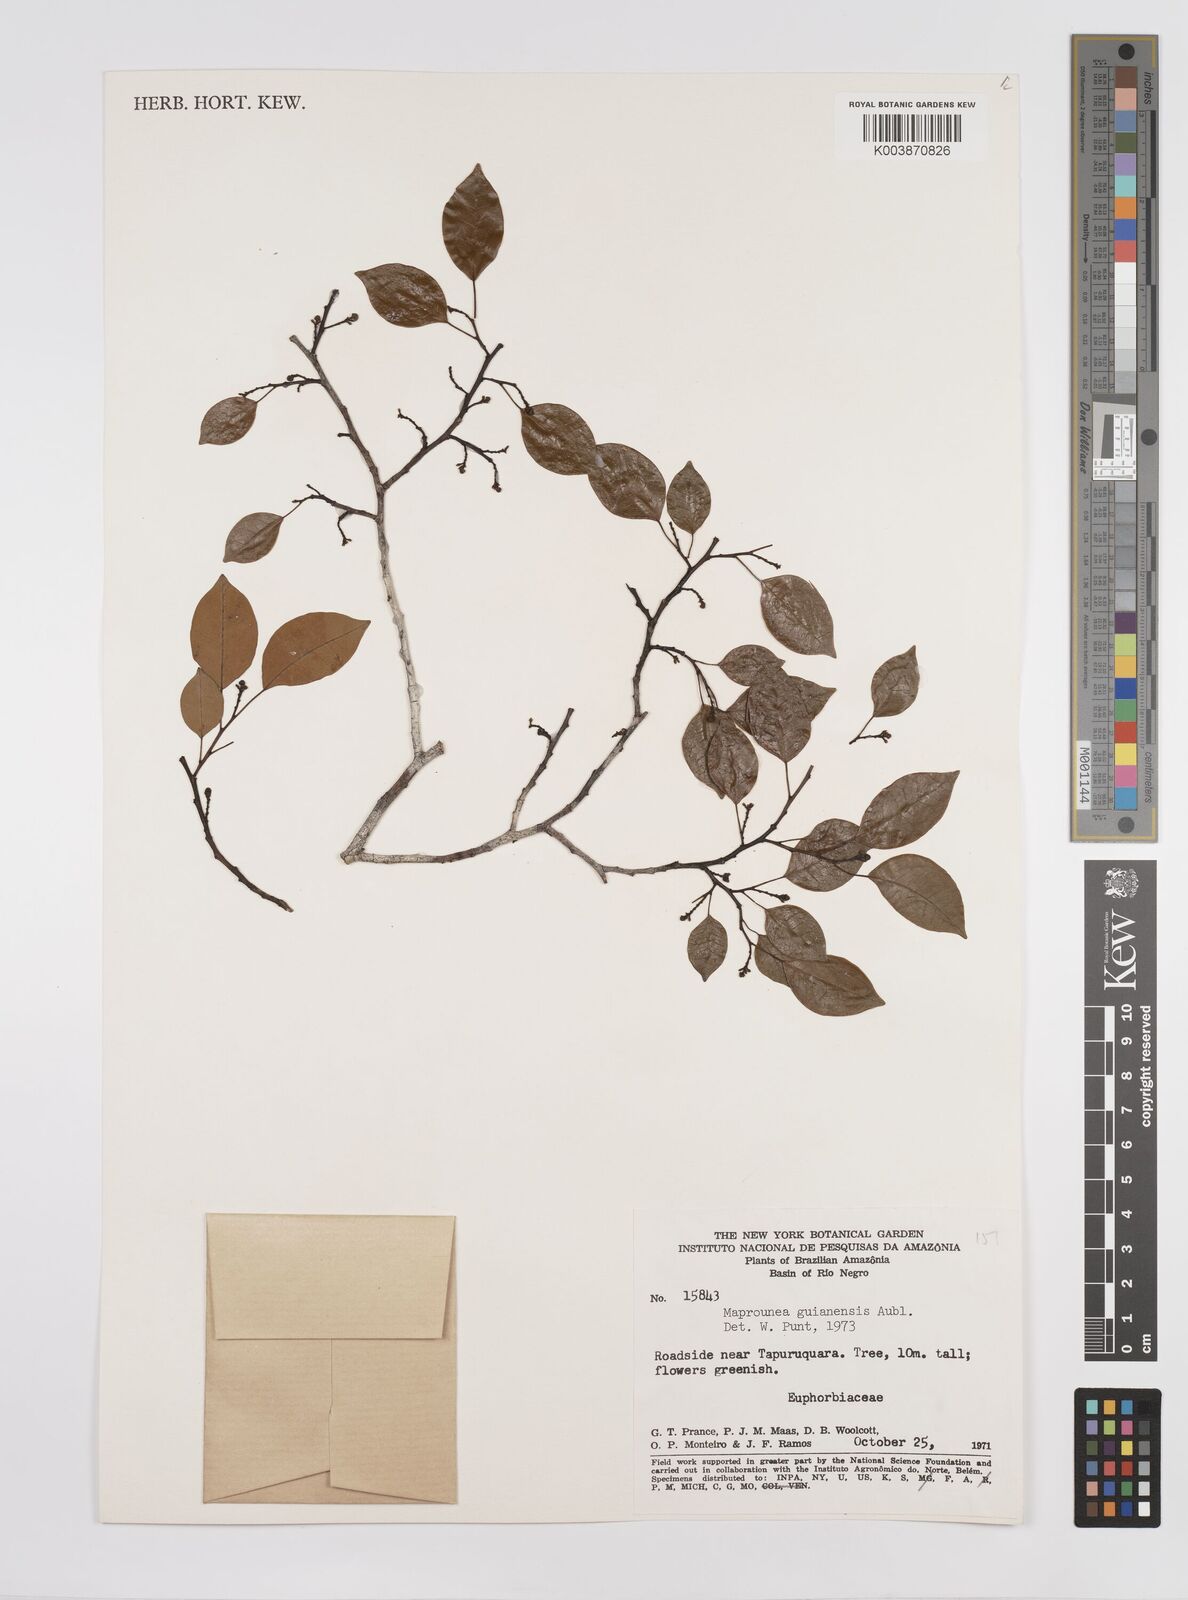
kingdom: Plantae
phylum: Tracheophyta
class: Magnoliopsida
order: Malpighiales
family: Euphorbiaceae
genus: Maprounea
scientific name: Maprounea guianensis
